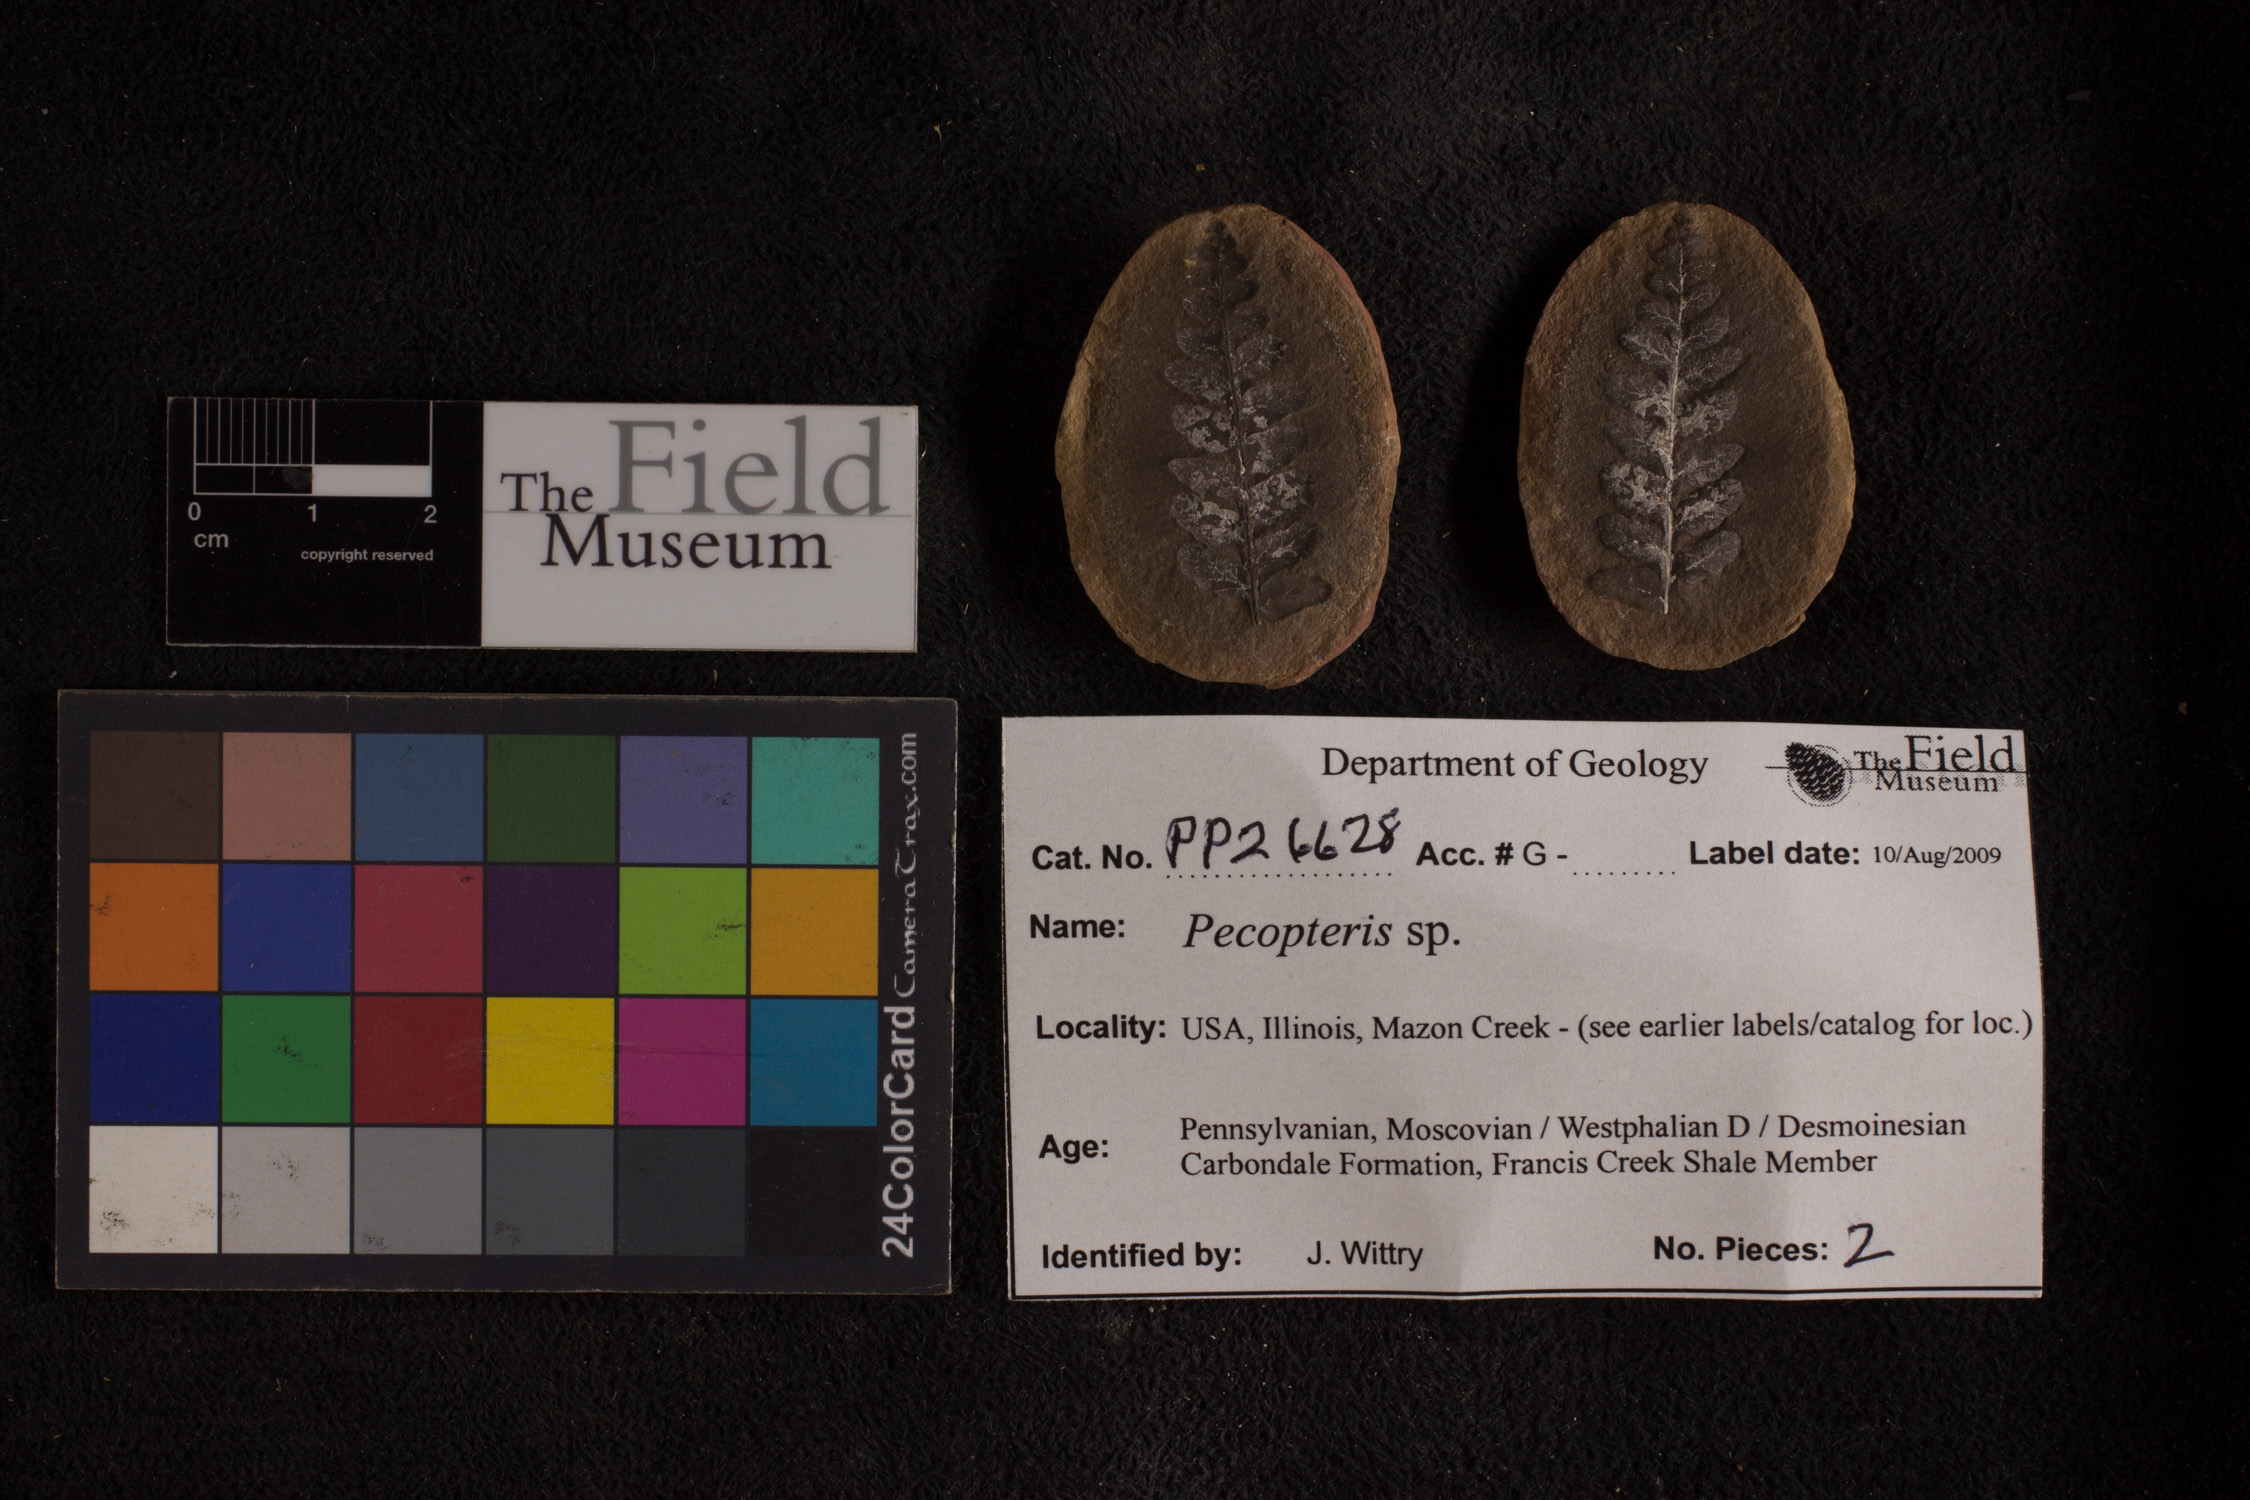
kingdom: Plantae
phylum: Tracheophyta
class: Polypodiopsida
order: Marattiales
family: Asterothecaceae
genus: Pecopteris
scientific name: Pecopteris
